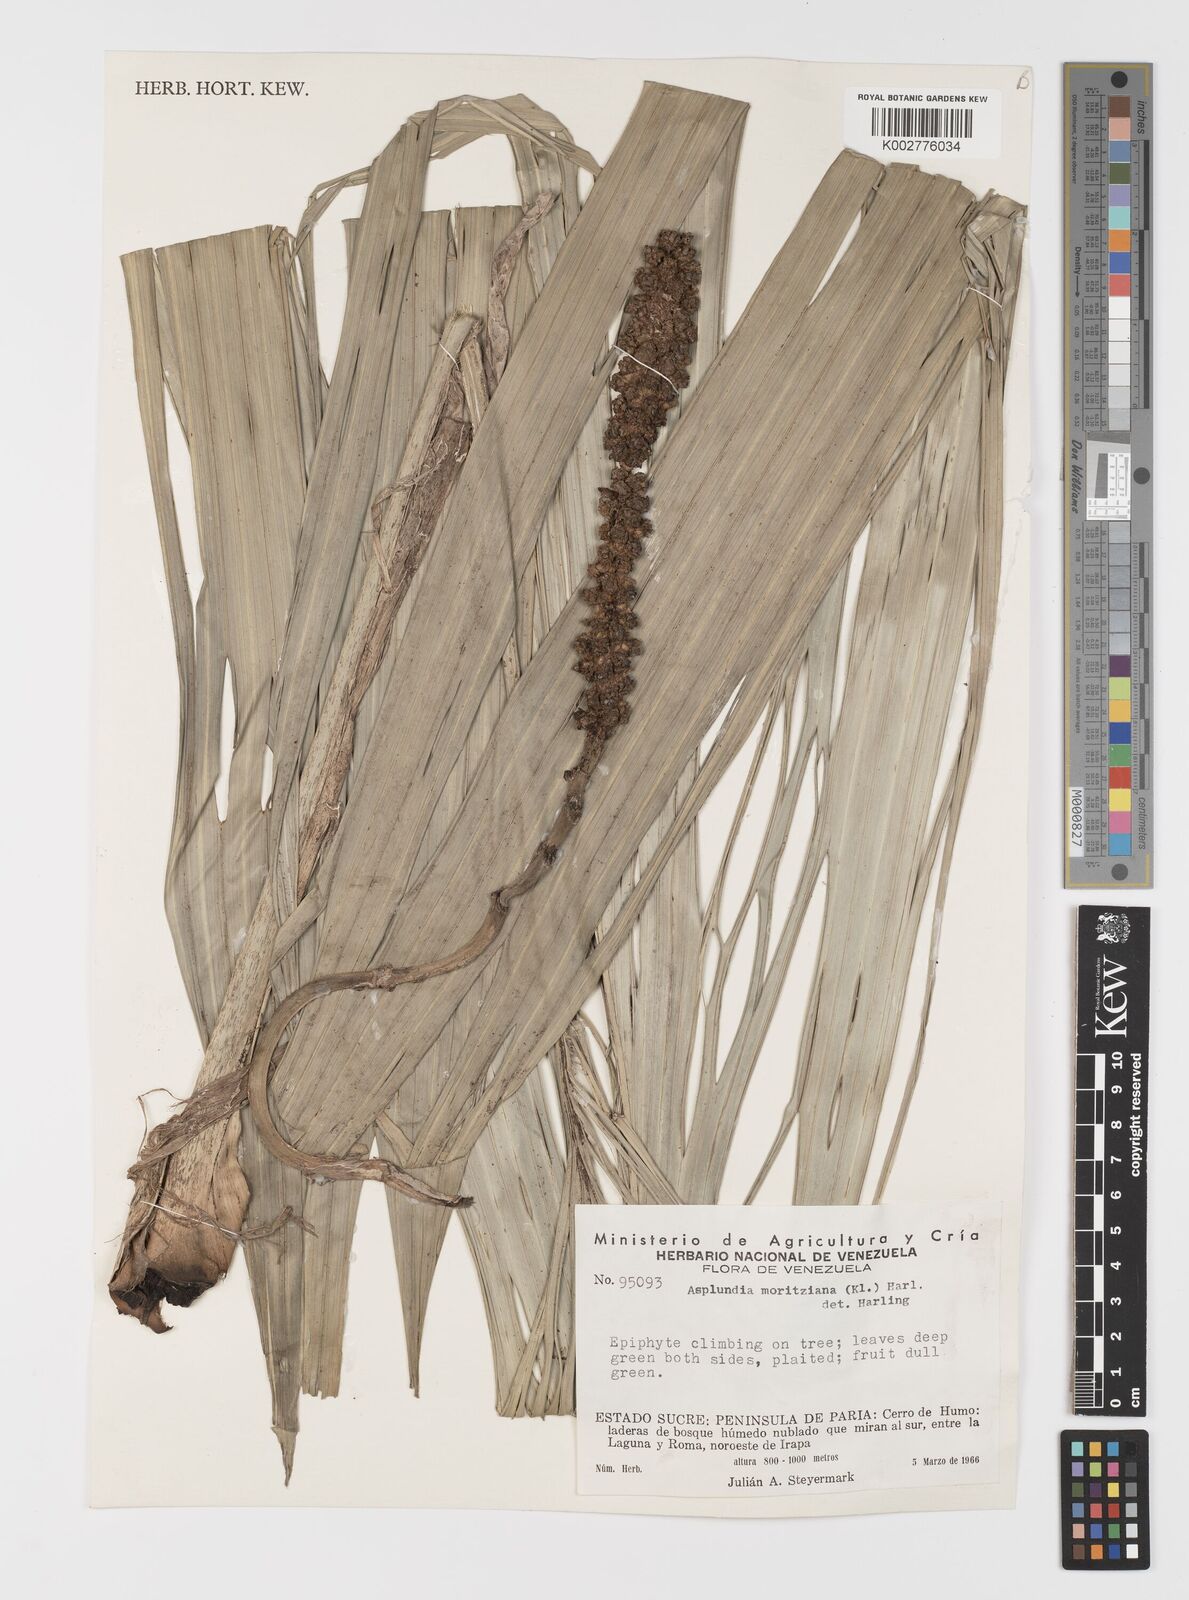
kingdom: Plantae
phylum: Tracheophyta
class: Liliopsida
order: Pandanales
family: Cyclanthaceae
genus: Asplundia
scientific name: Asplundia moritziana
